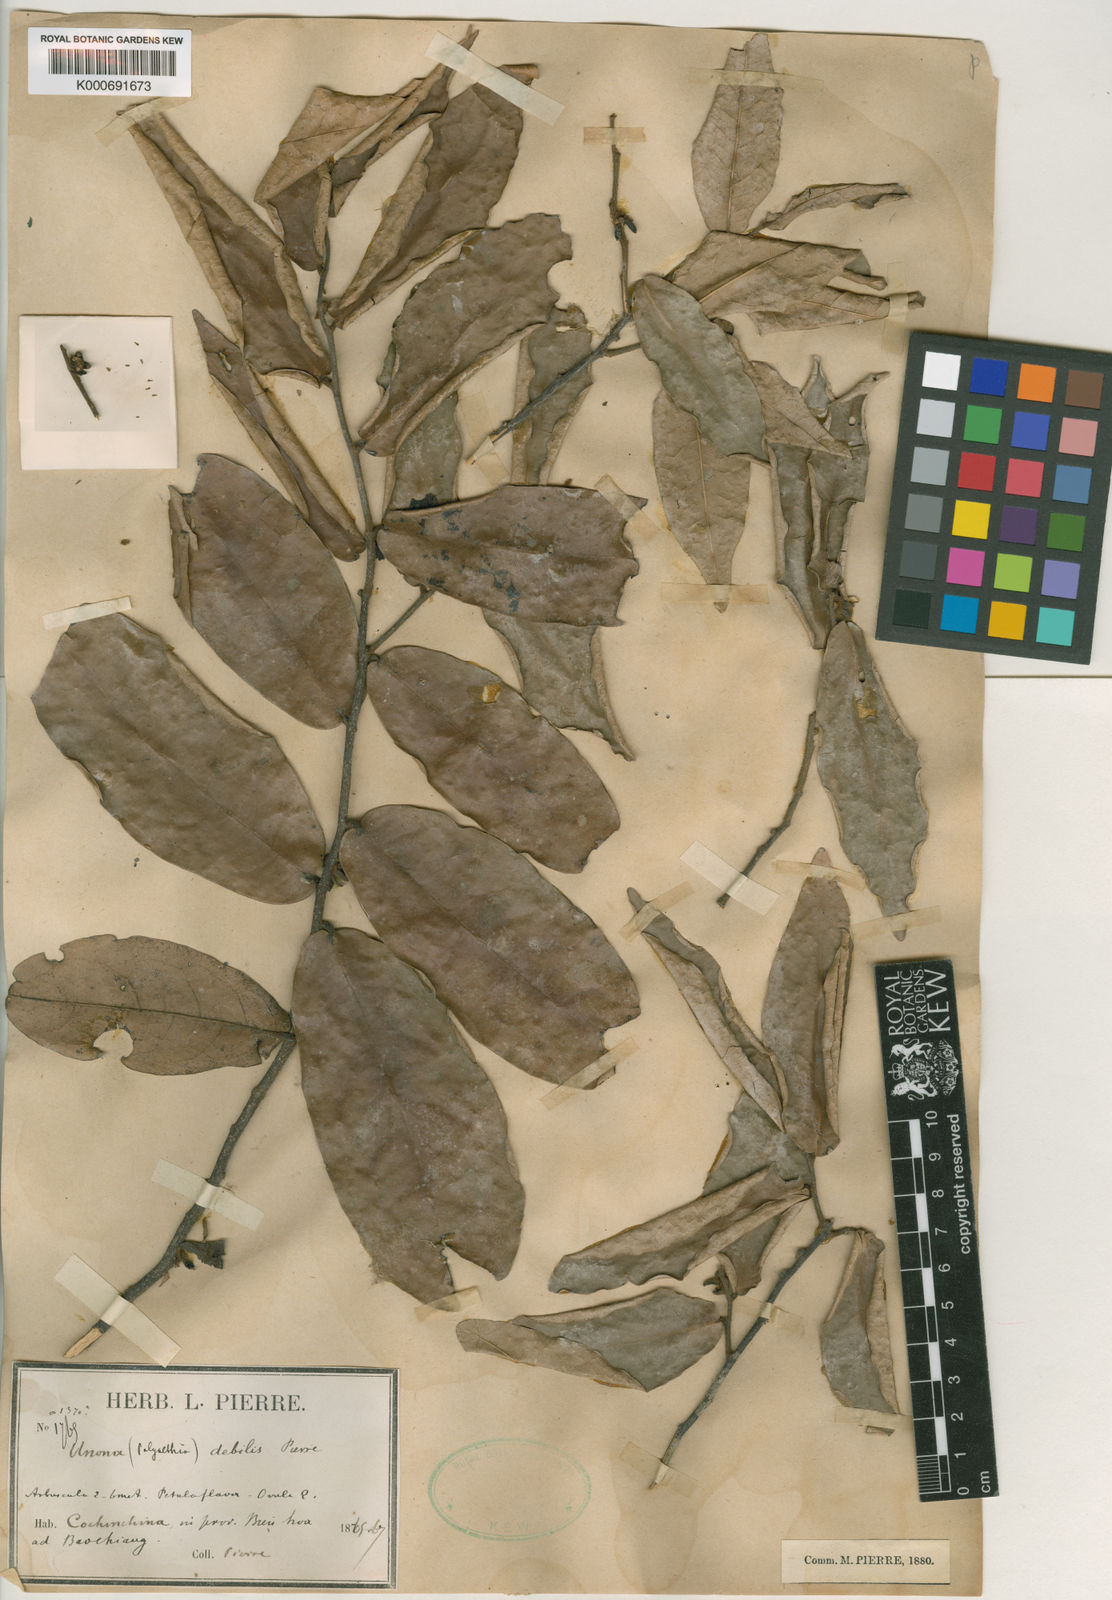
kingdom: Plantae
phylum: Tracheophyta
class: Magnoliopsida
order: Magnoliales
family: Annonaceae
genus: Polyalthia
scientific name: Polyalthia
